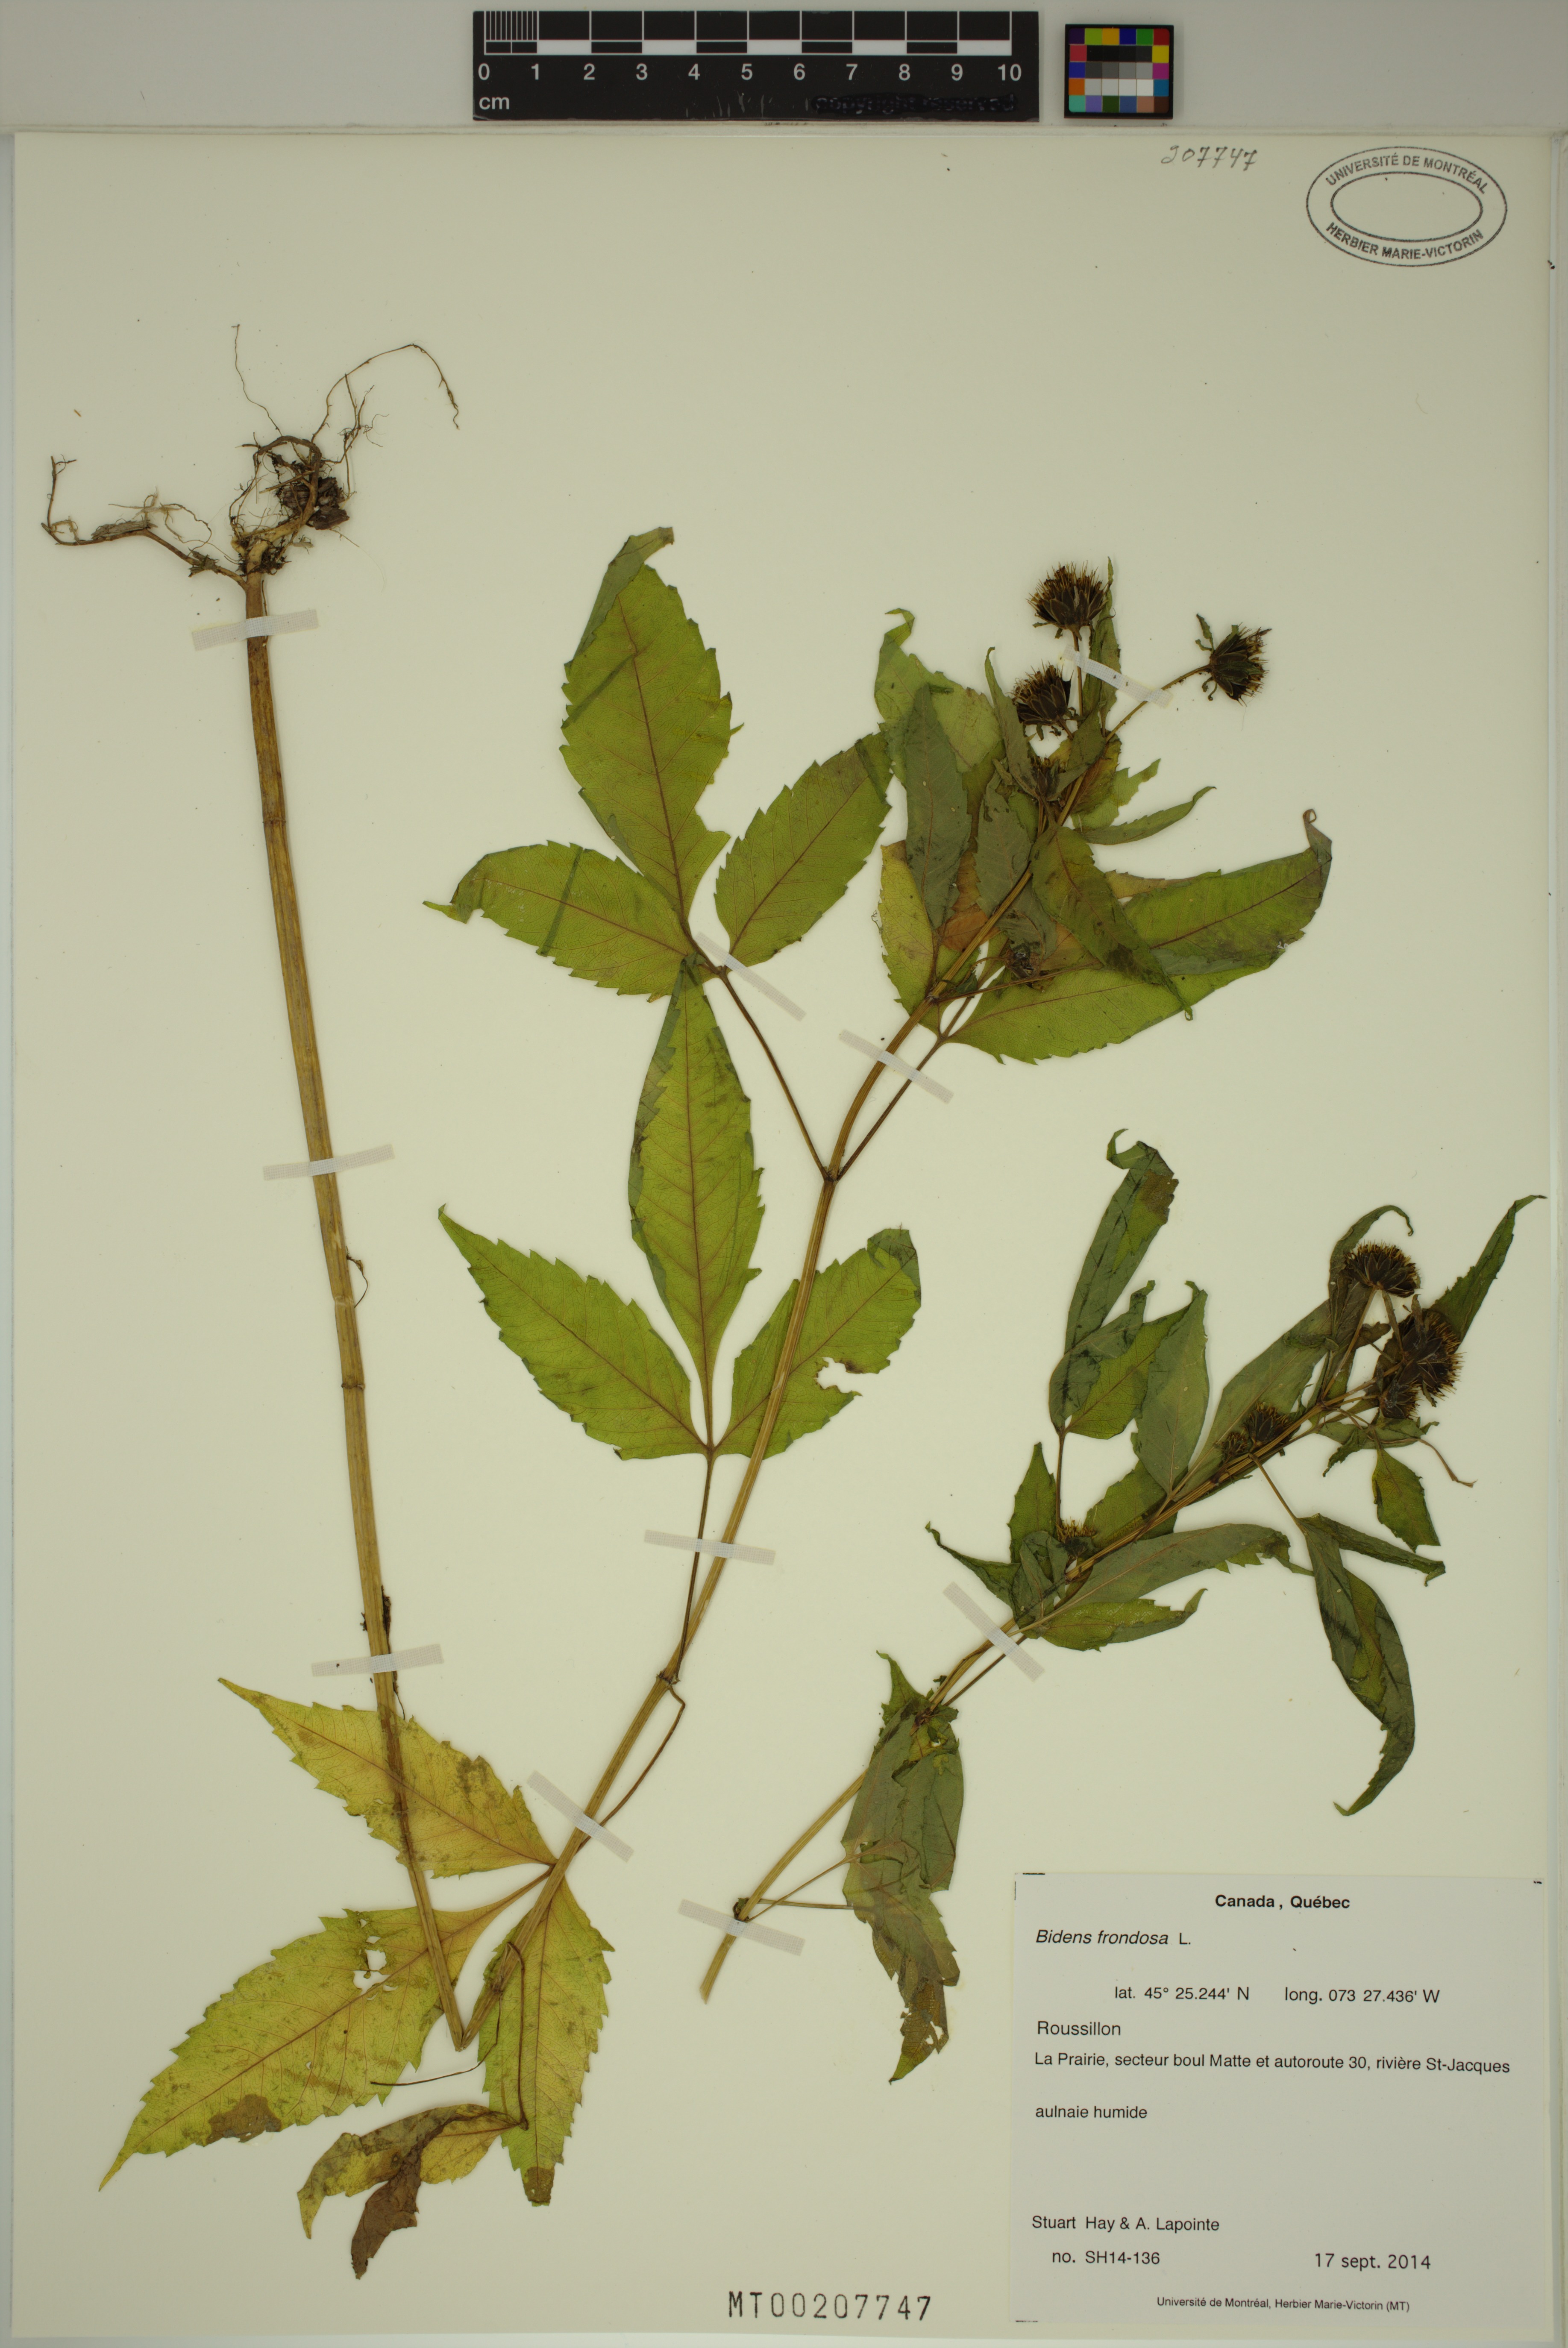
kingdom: Plantae
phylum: Tracheophyta
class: Magnoliopsida
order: Asterales
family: Asteraceae
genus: Bidens
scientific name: Bidens frondosa
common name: Beggarticks
